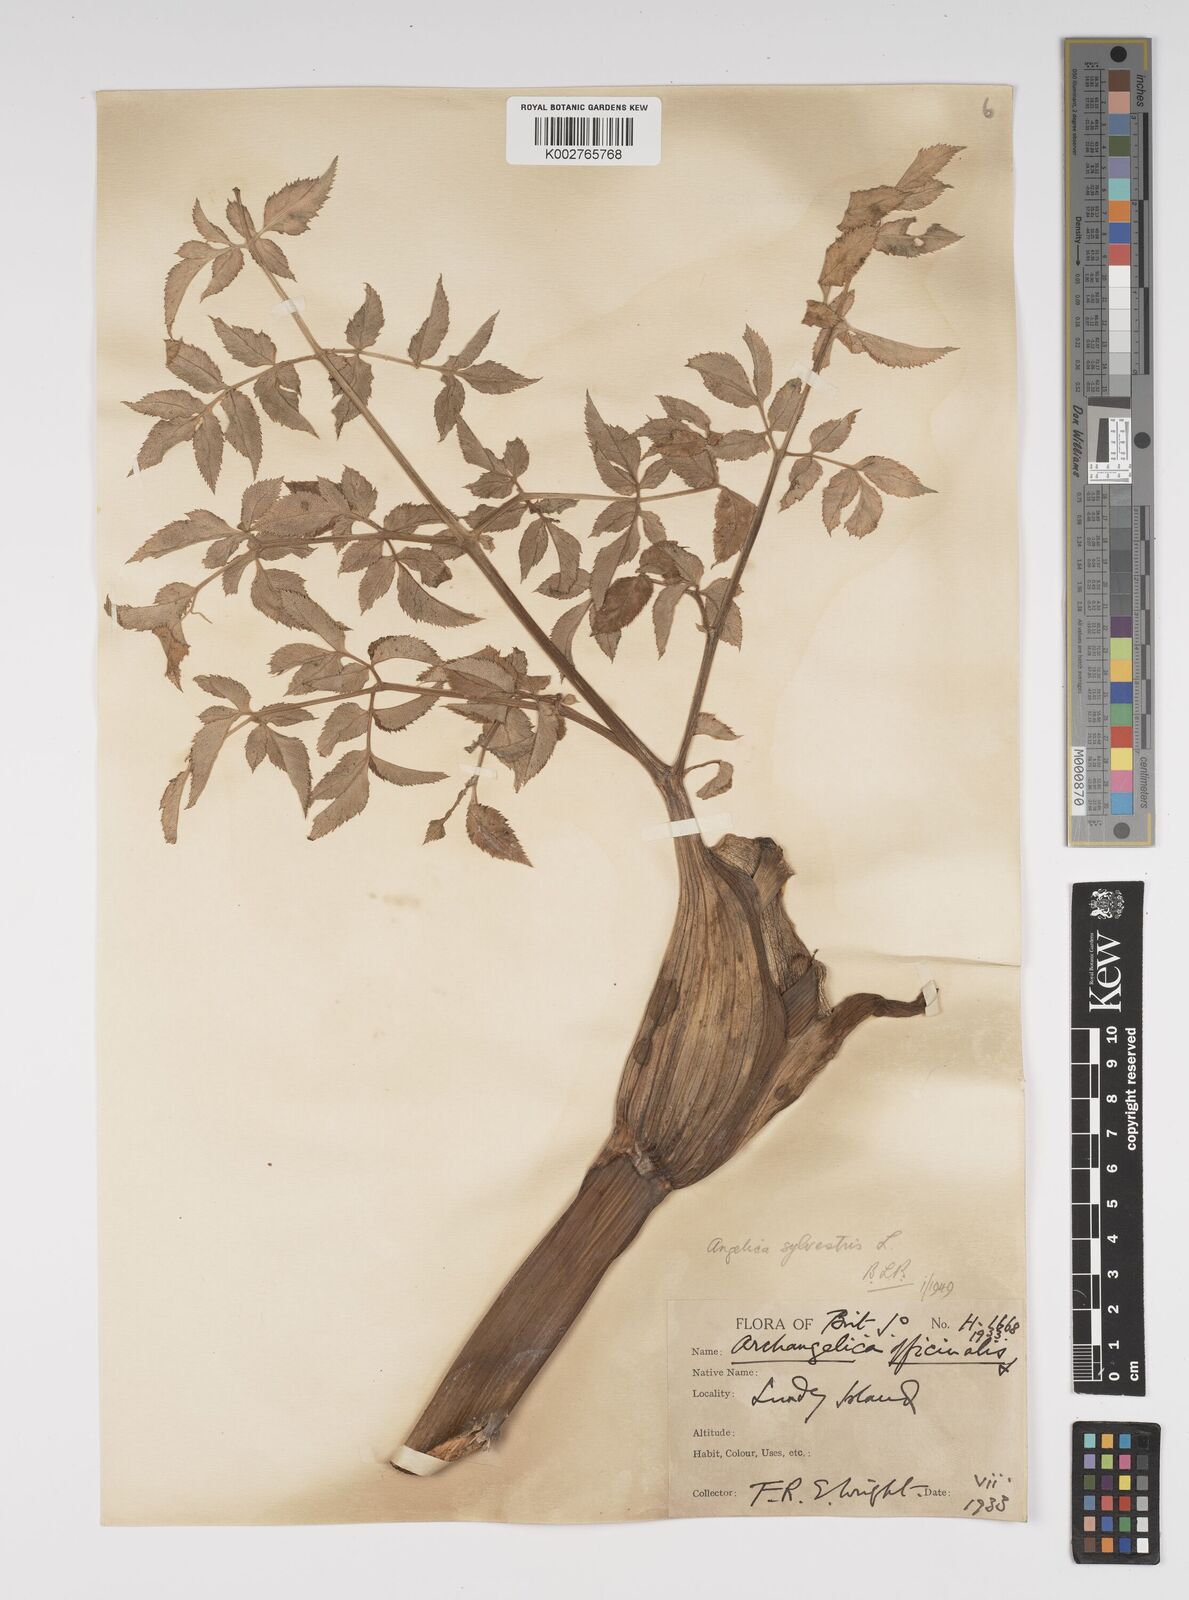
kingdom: Plantae
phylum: Tracheophyta
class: Magnoliopsida
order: Apiales
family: Apiaceae
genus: Angelica
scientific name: Angelica sylvestris
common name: Wild angelica
